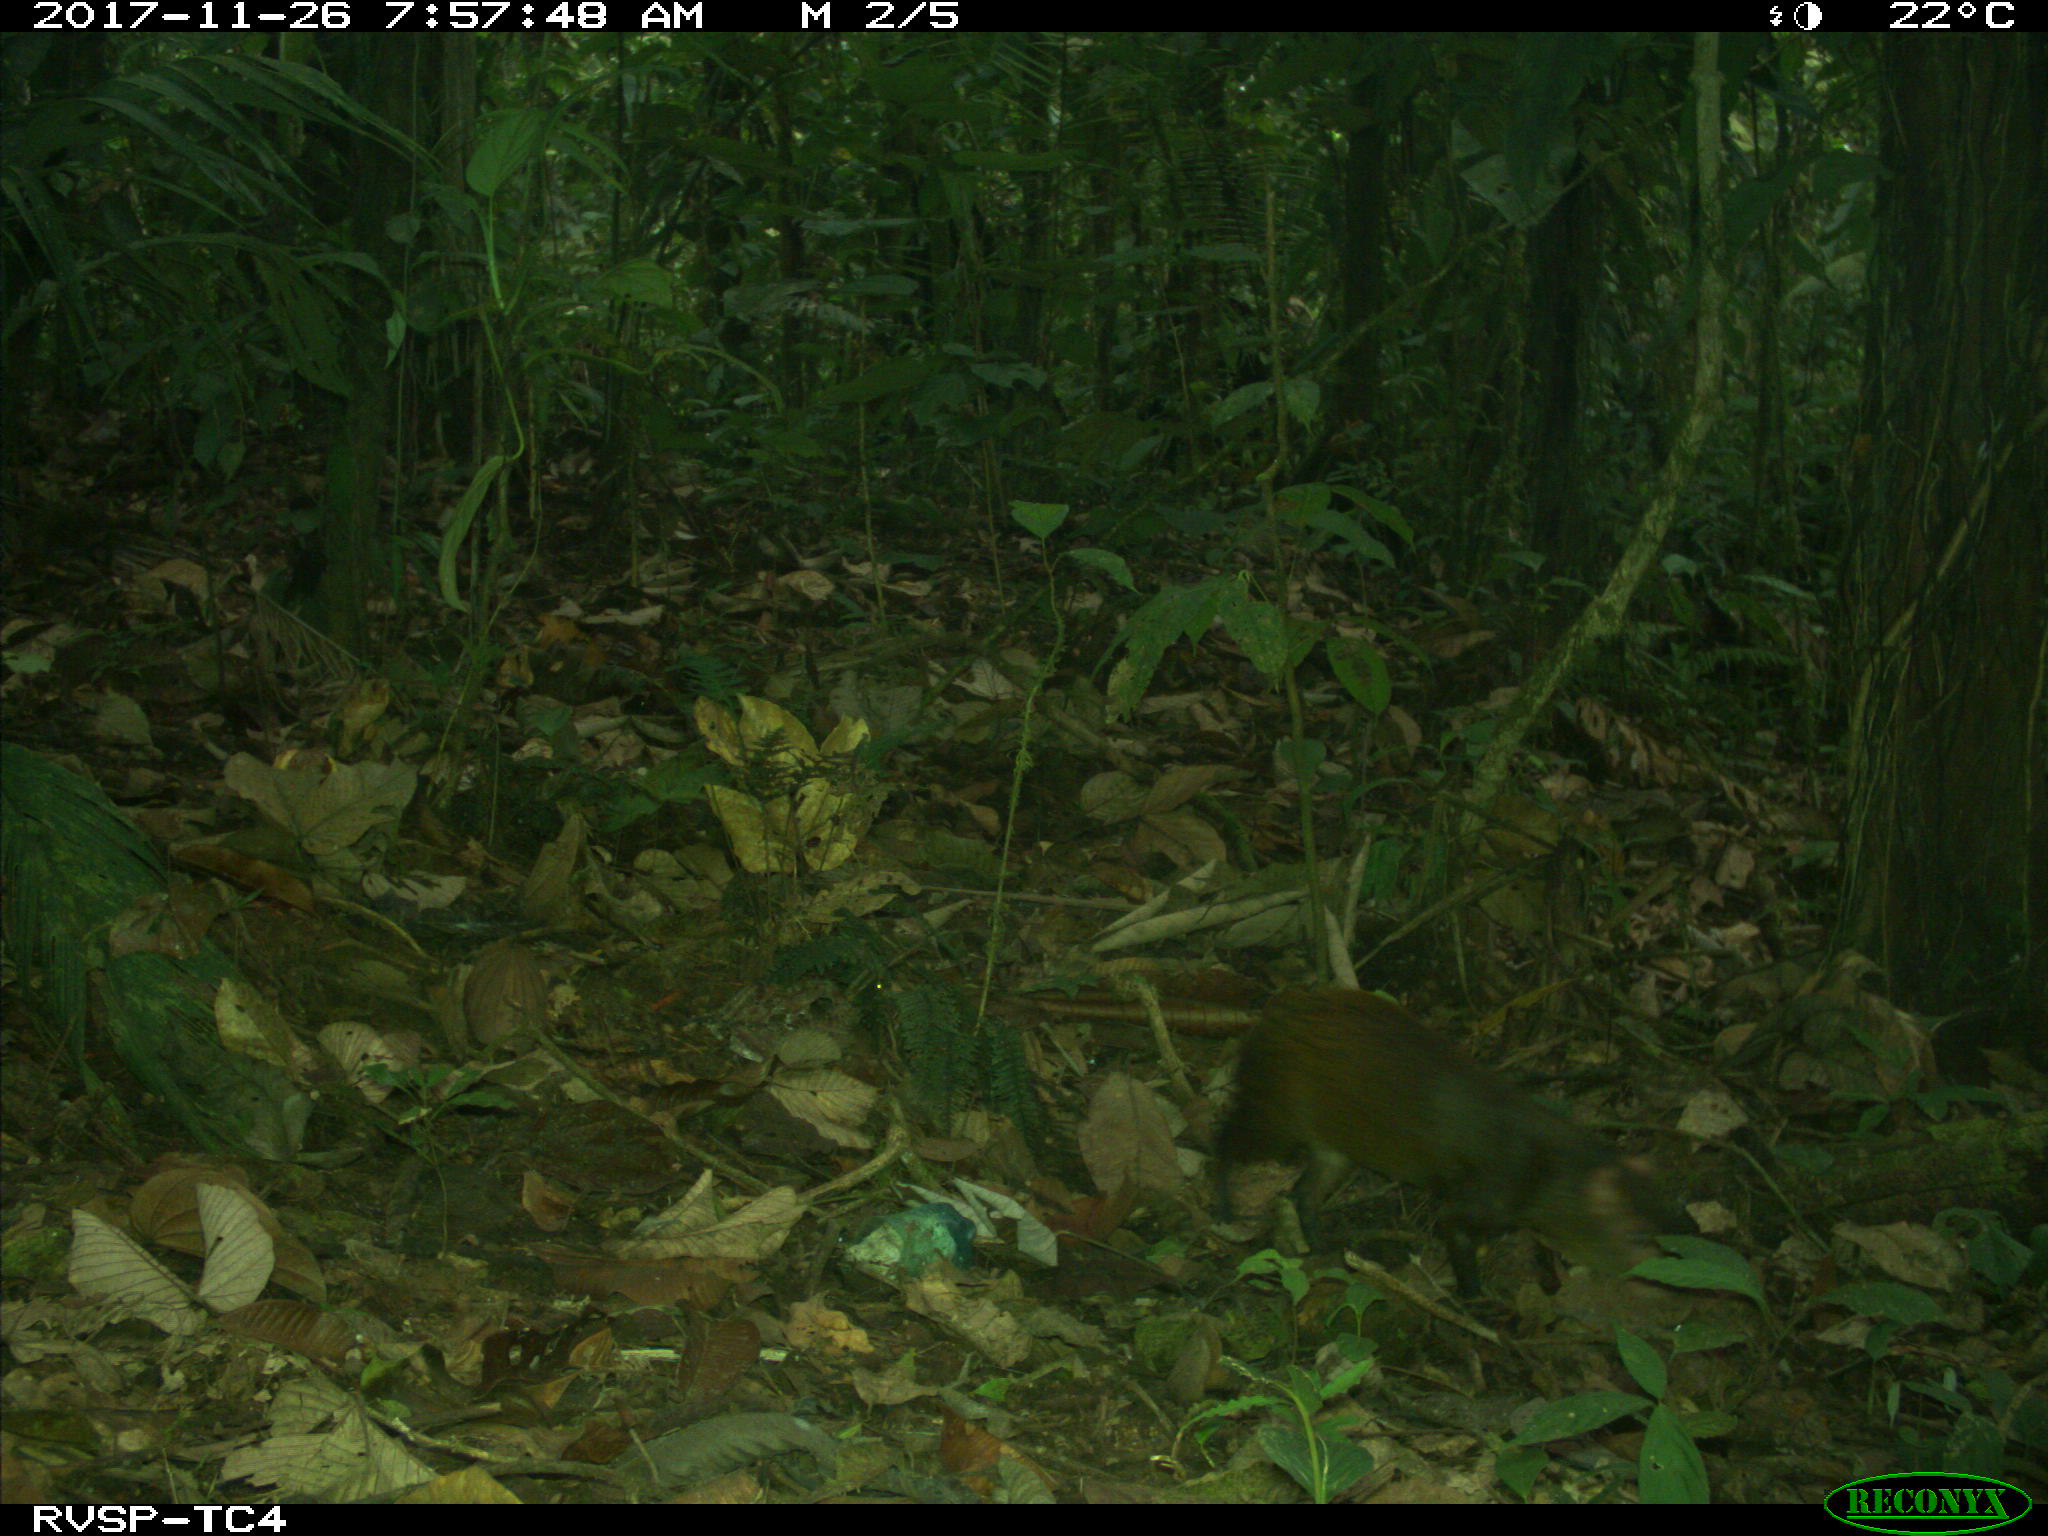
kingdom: Animalia
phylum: Chordata
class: Mammalia
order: Rodentia
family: Dasyproctidae
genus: Dasyprocta
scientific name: Dasyprocta punctata
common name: Central american agouti
